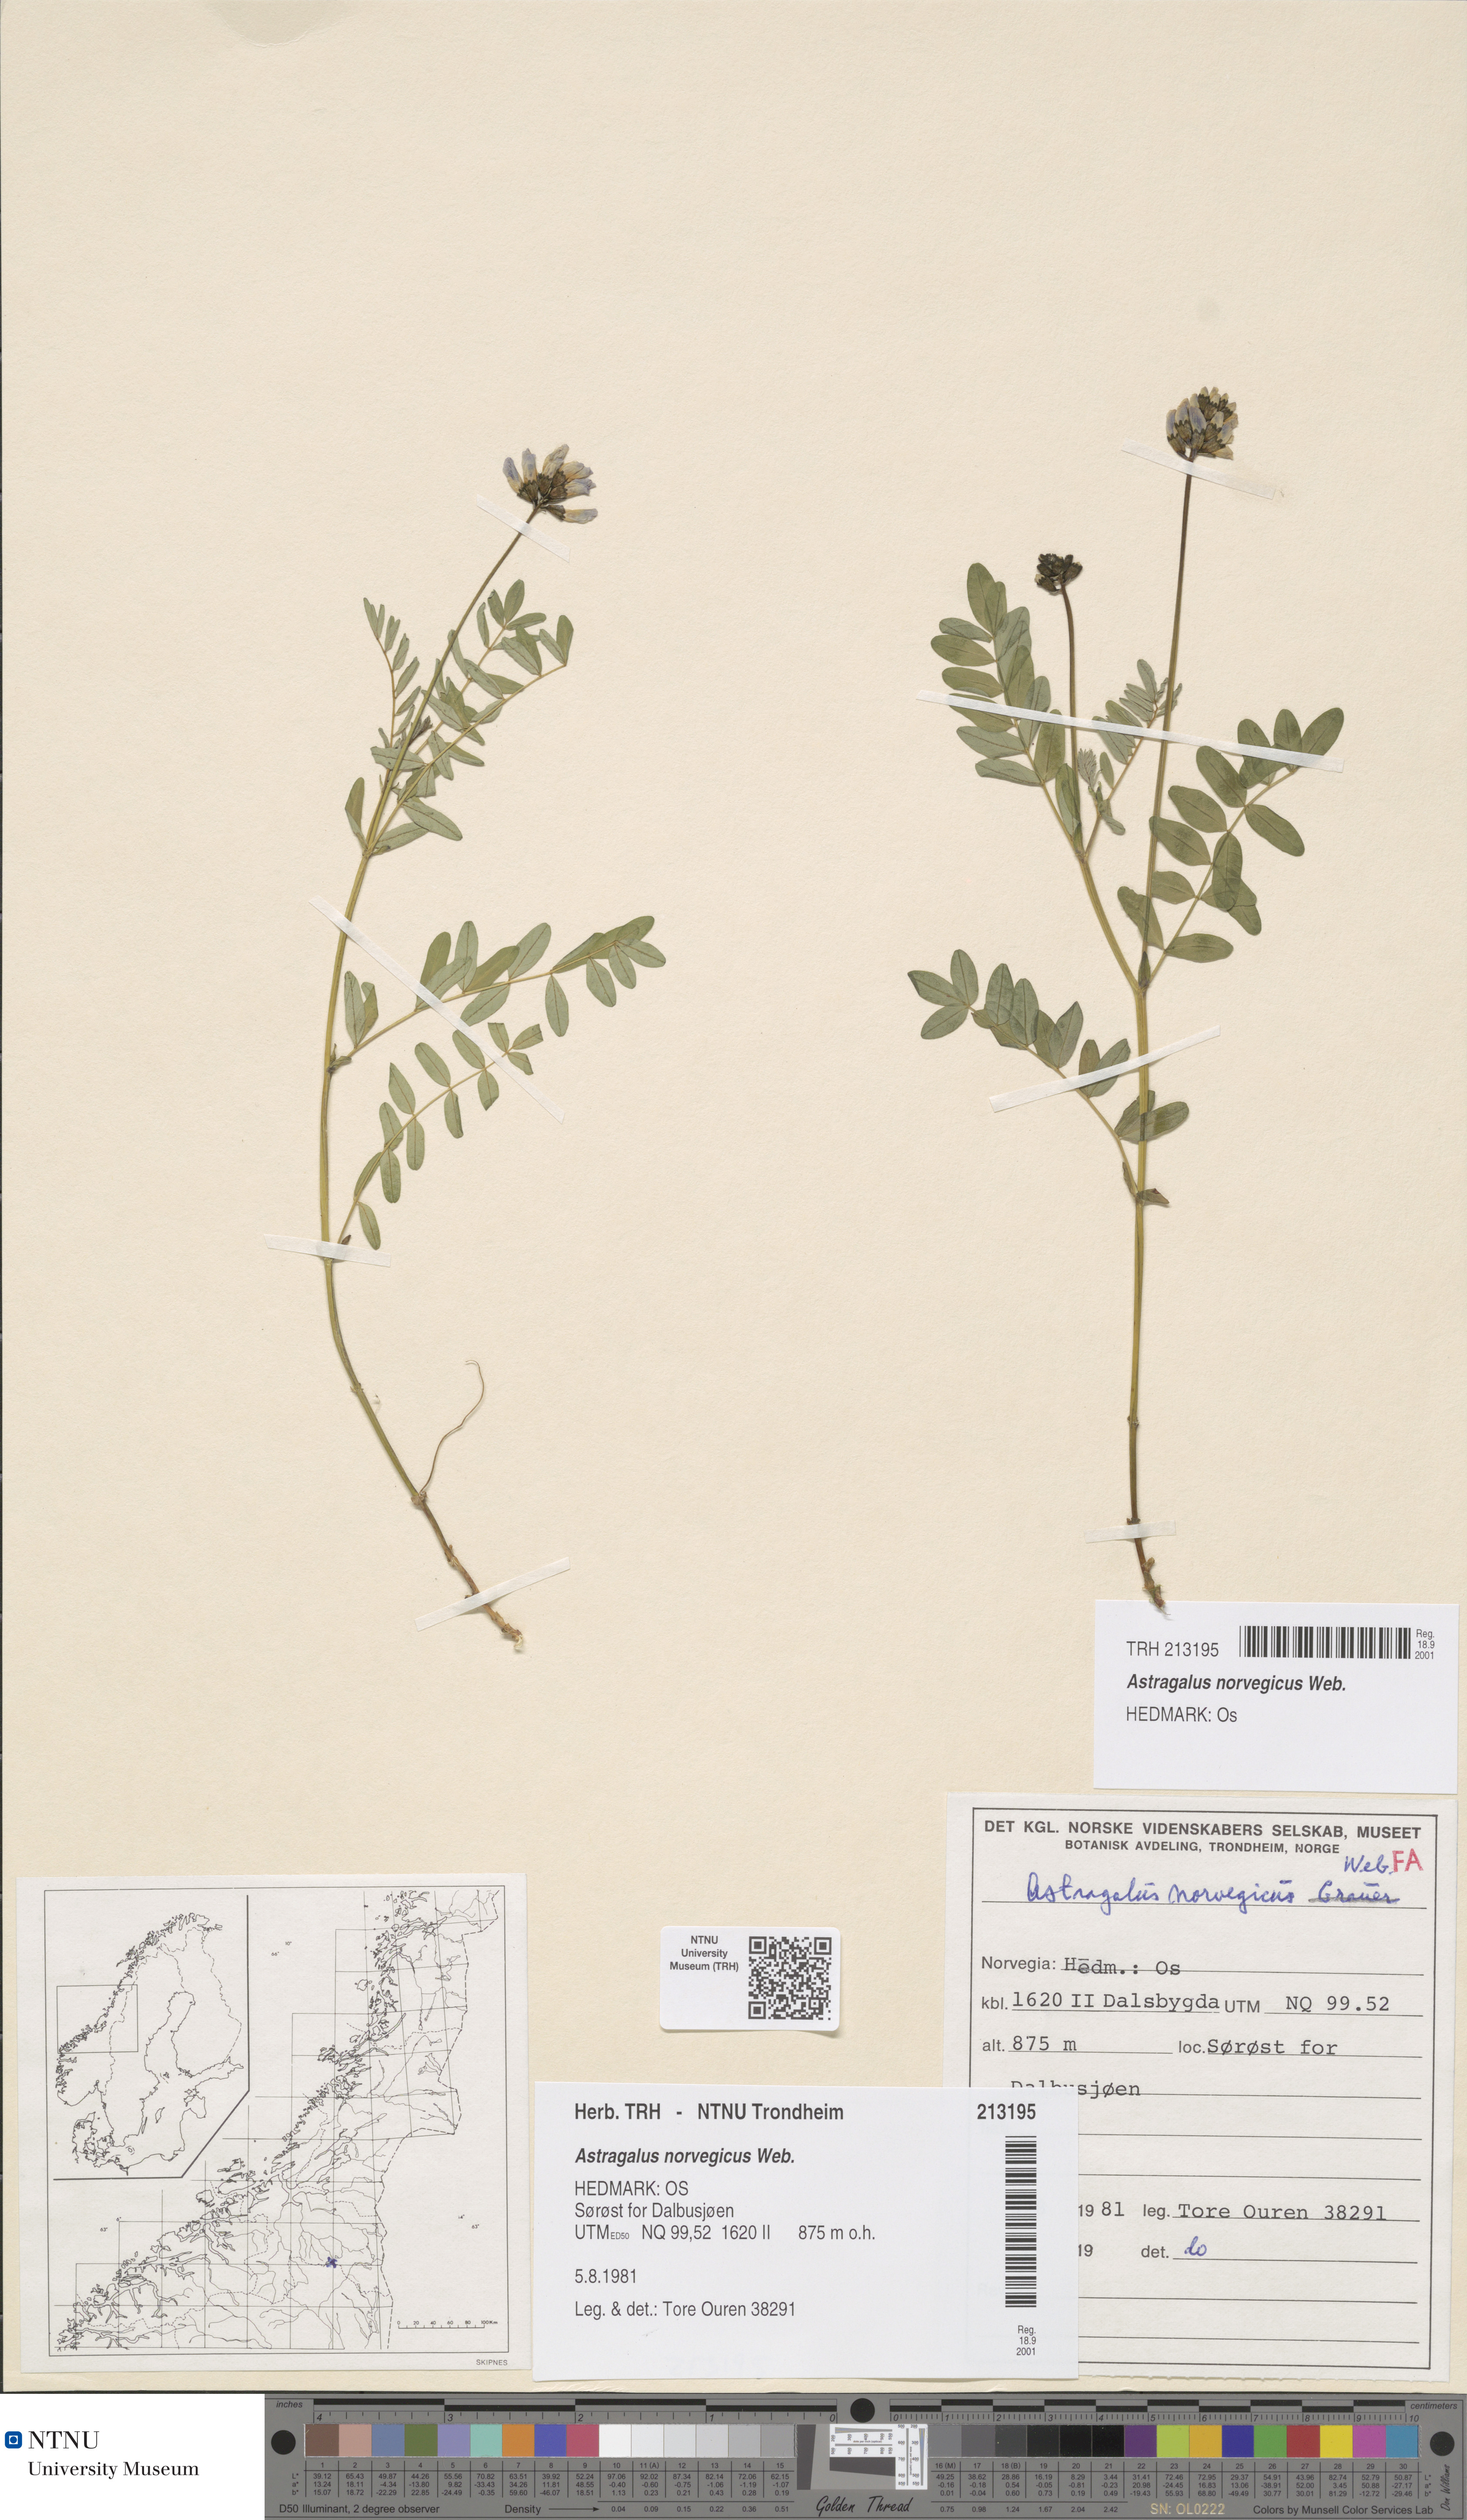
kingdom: Plantae
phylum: Tracheophyta
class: Magnoliopsida
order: Fabales
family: Fabaceae
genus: Astragalus
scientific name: Astragalus norvegicus
